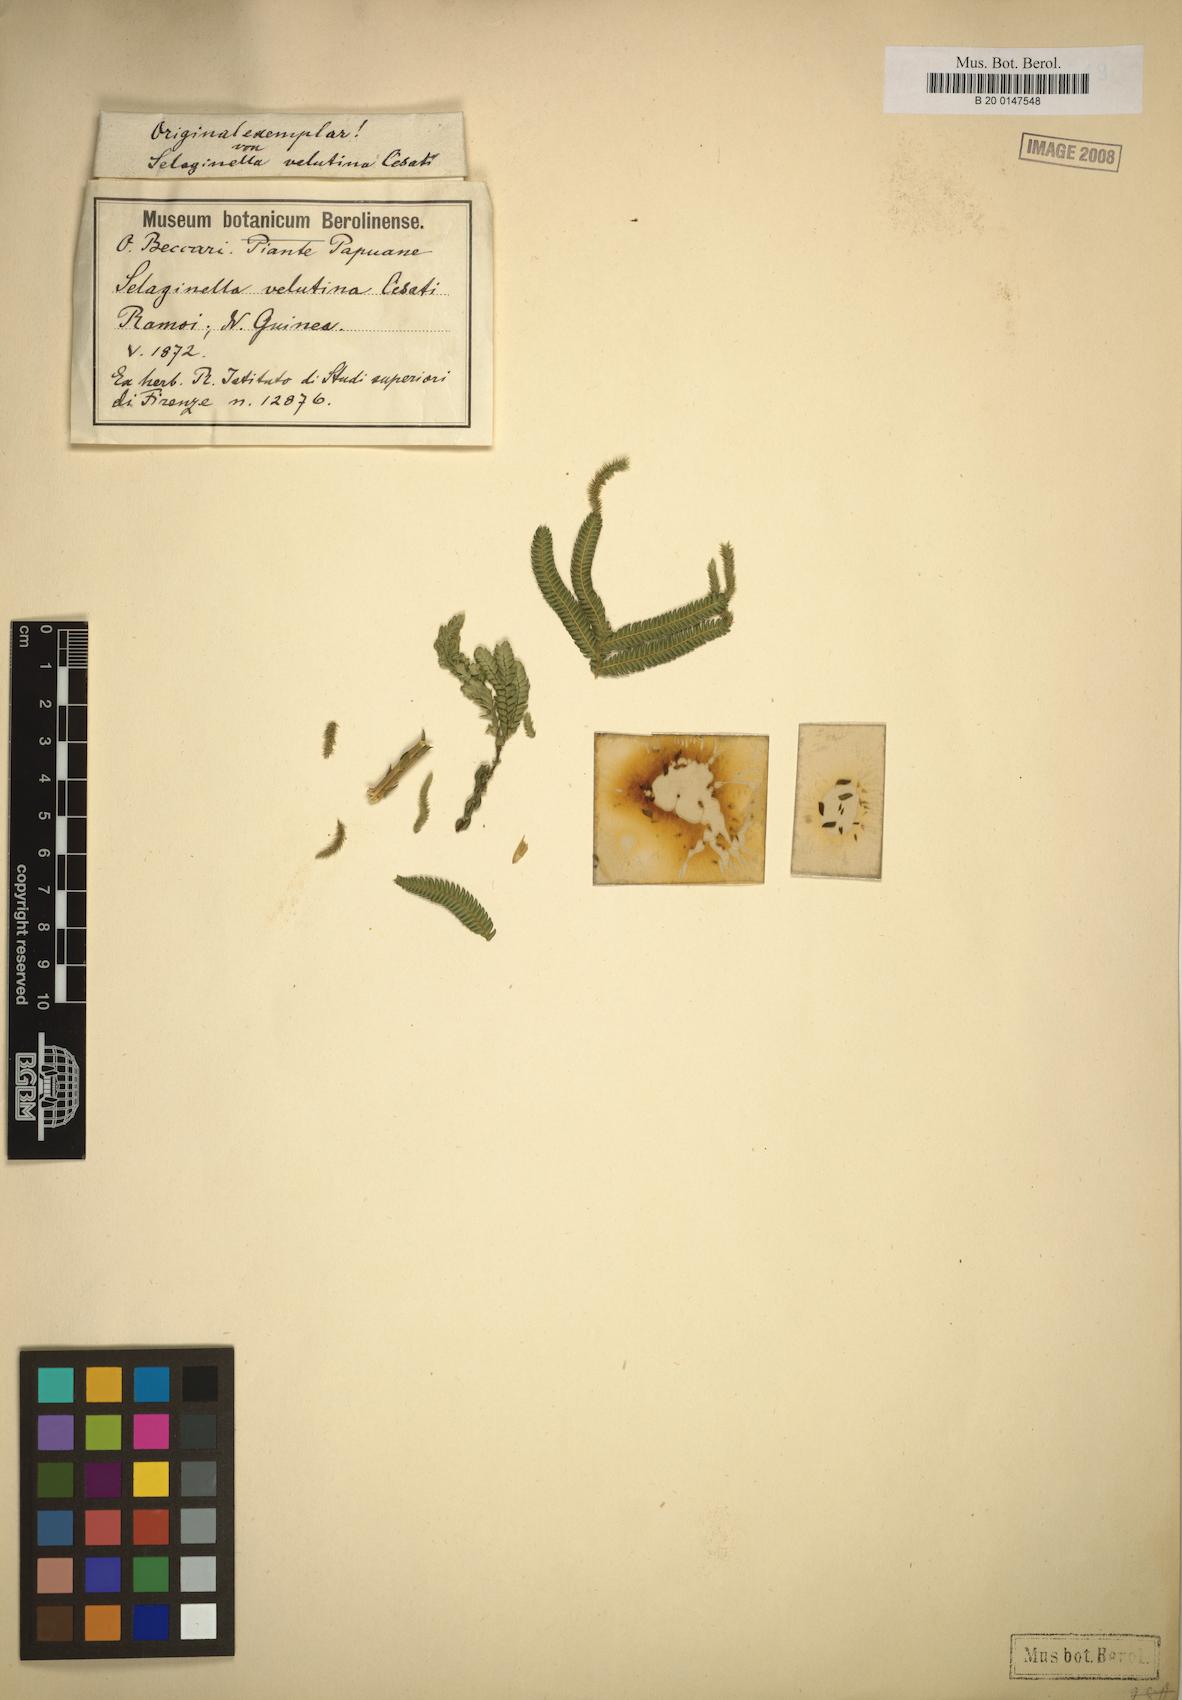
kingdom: Plantae
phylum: Tracheophyta
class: Lycopodiopsida
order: Selaginellales
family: Selaginellaceae
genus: Selaginella
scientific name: Selaginella velutina
